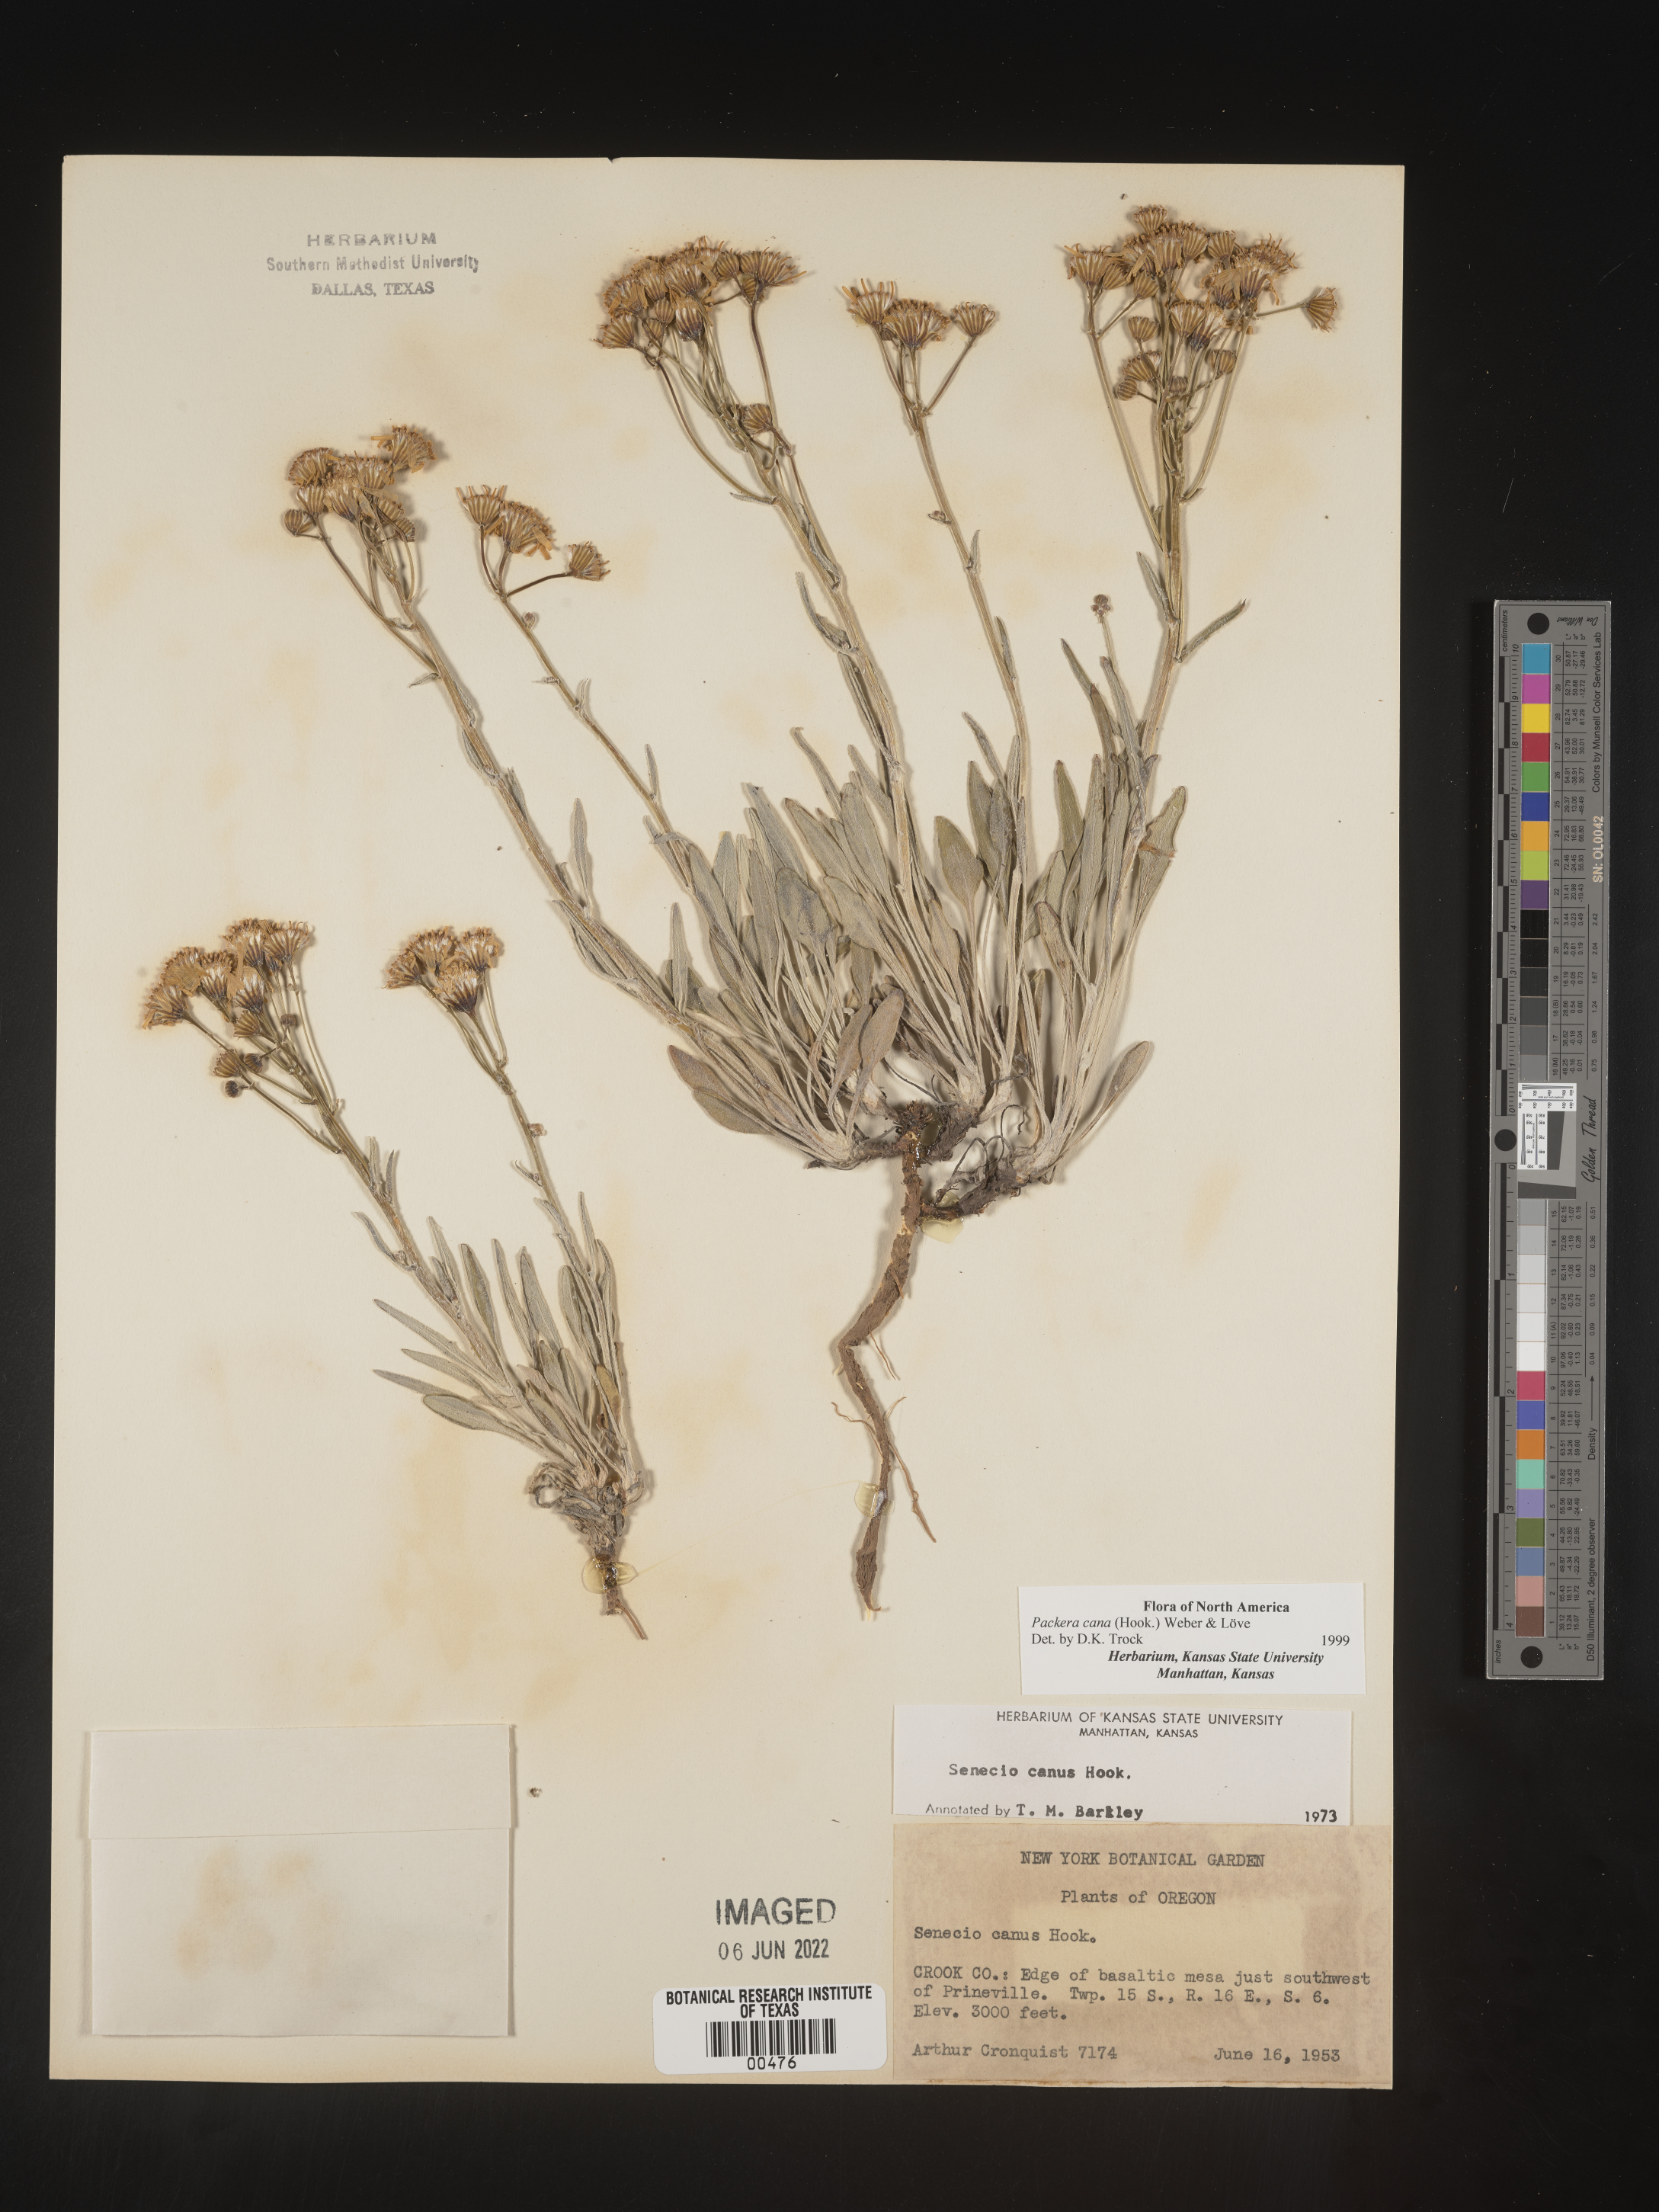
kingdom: Plantae
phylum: Tracheophyta
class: Magnoliopsida
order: Asterales
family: Asteraceae
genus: Packera
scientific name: Packera cana
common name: Woolly groundsel
